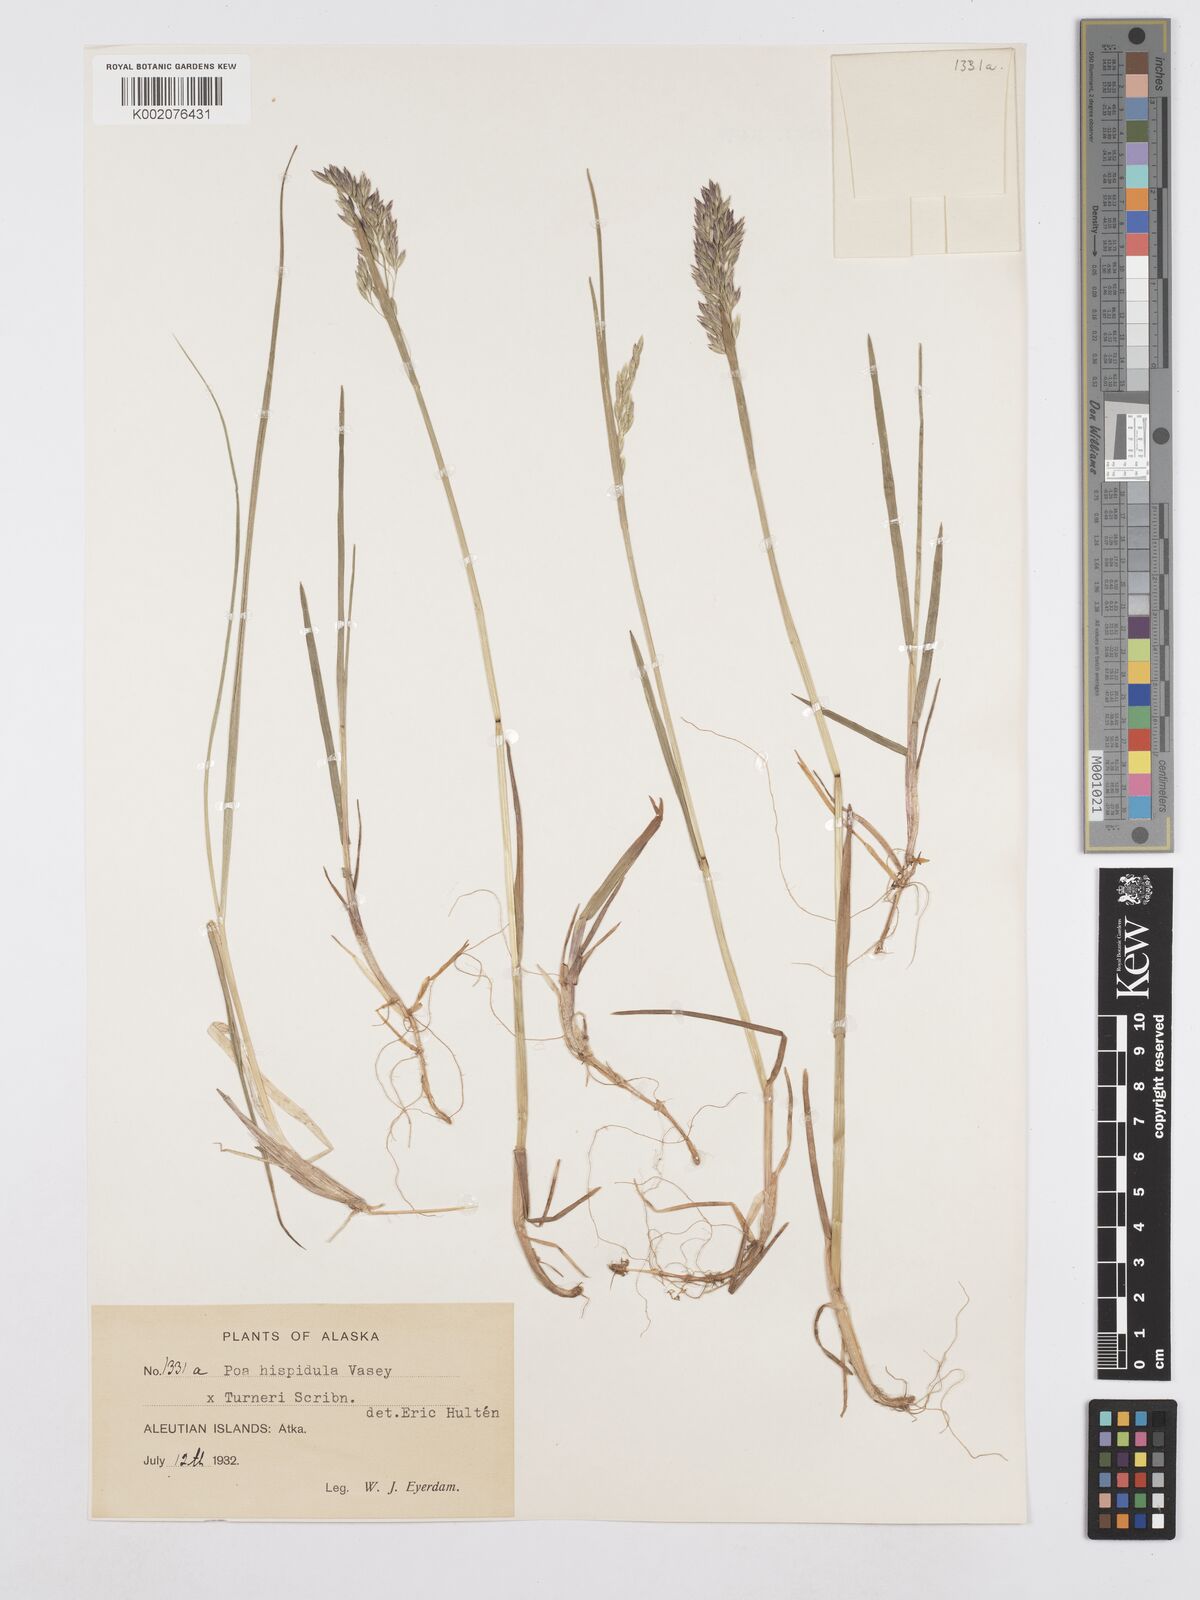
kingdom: Plantae
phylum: Tracheophyta
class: Liliopsida
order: Poales
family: Poaceae
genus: Poa
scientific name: Poa macrocalyx
